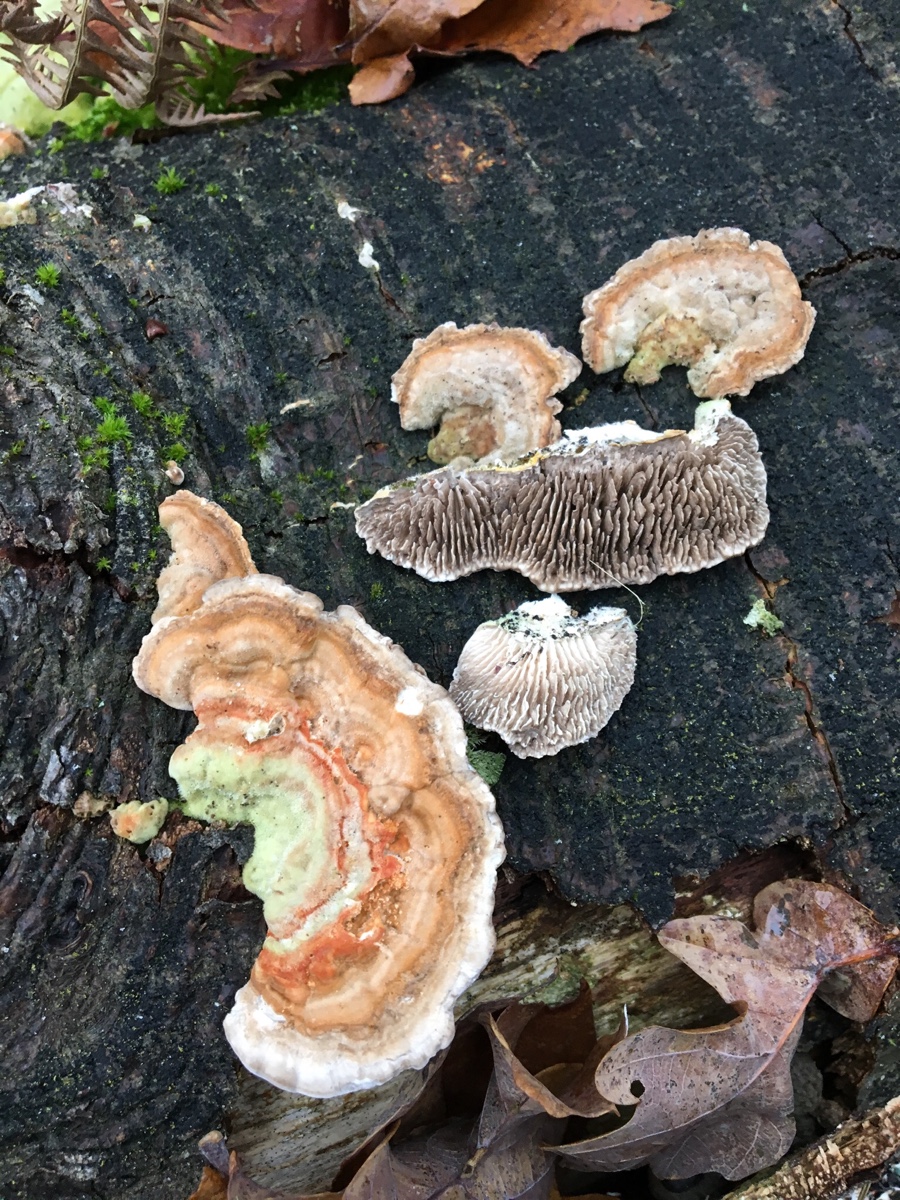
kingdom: Fungi
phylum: Basidiomycota
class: Agaricomycetes
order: Polyporales
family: Polyporaceae
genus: Lenzites
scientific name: Lenzites betulinus
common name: birke-læderporesvamp
